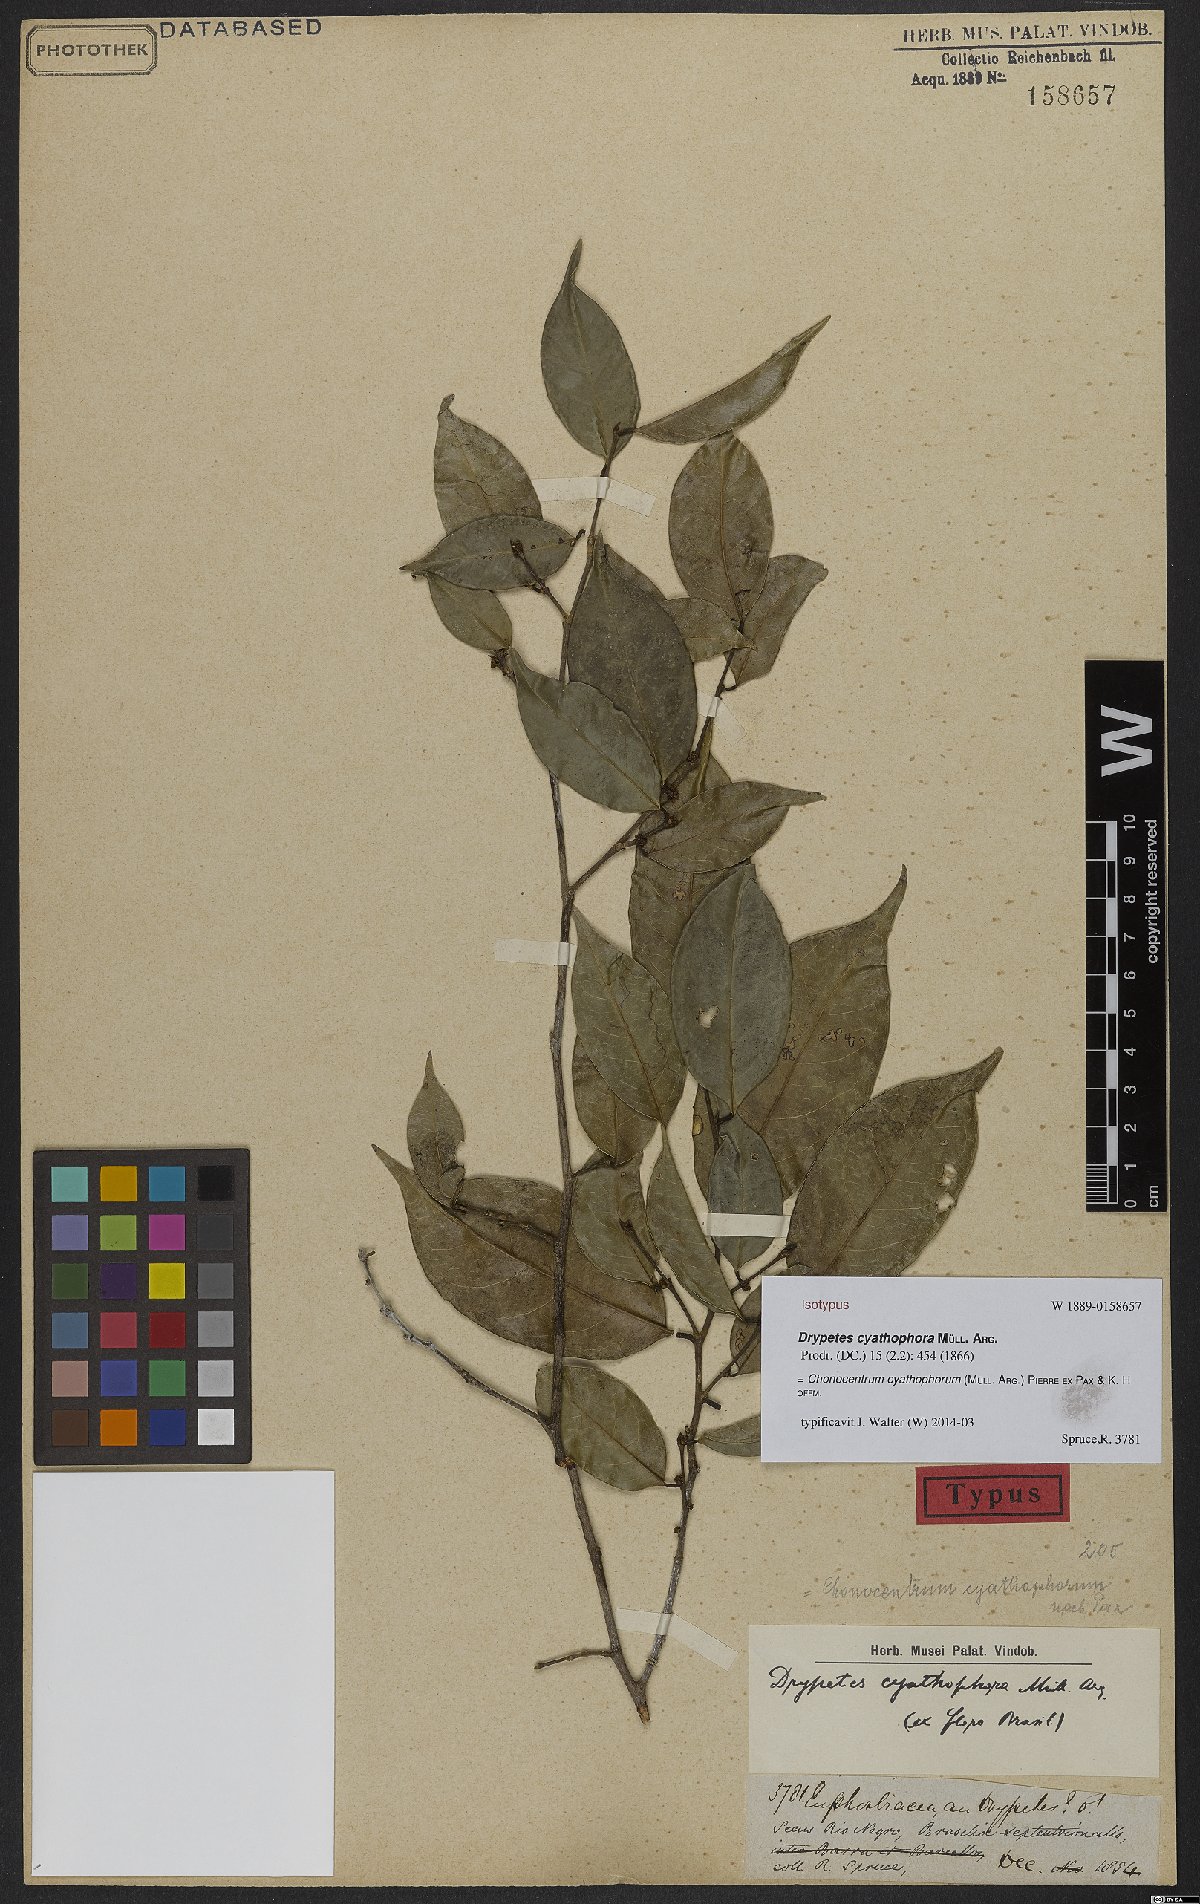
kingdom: Plantae
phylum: Tracheophyta
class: Magnoliopsida
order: Malpighiales
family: Phyllanthaceae
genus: Chonocentrum
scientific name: Chonocentrum cyathophorum
